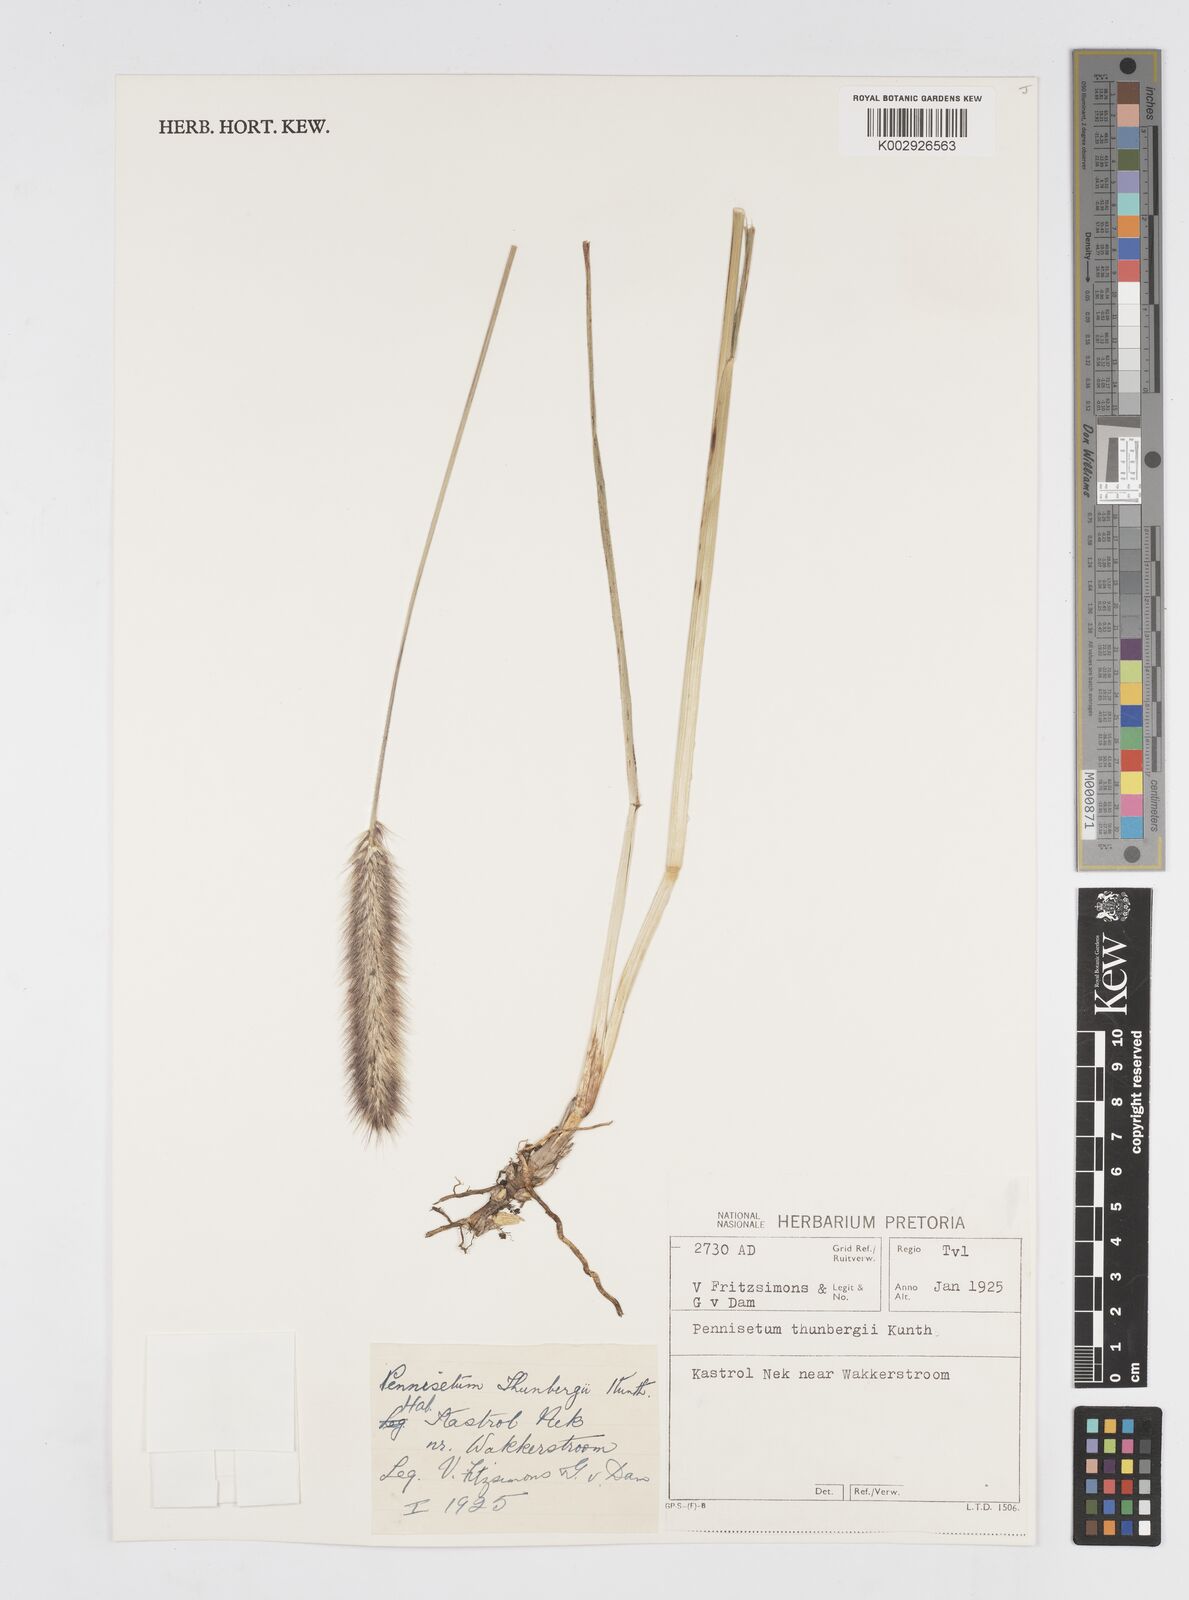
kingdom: Plantae
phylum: Tracheophyta
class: Liliopsida
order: Poales
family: Poaceae
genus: Cenchrus
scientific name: Cenchrus geniculatus
